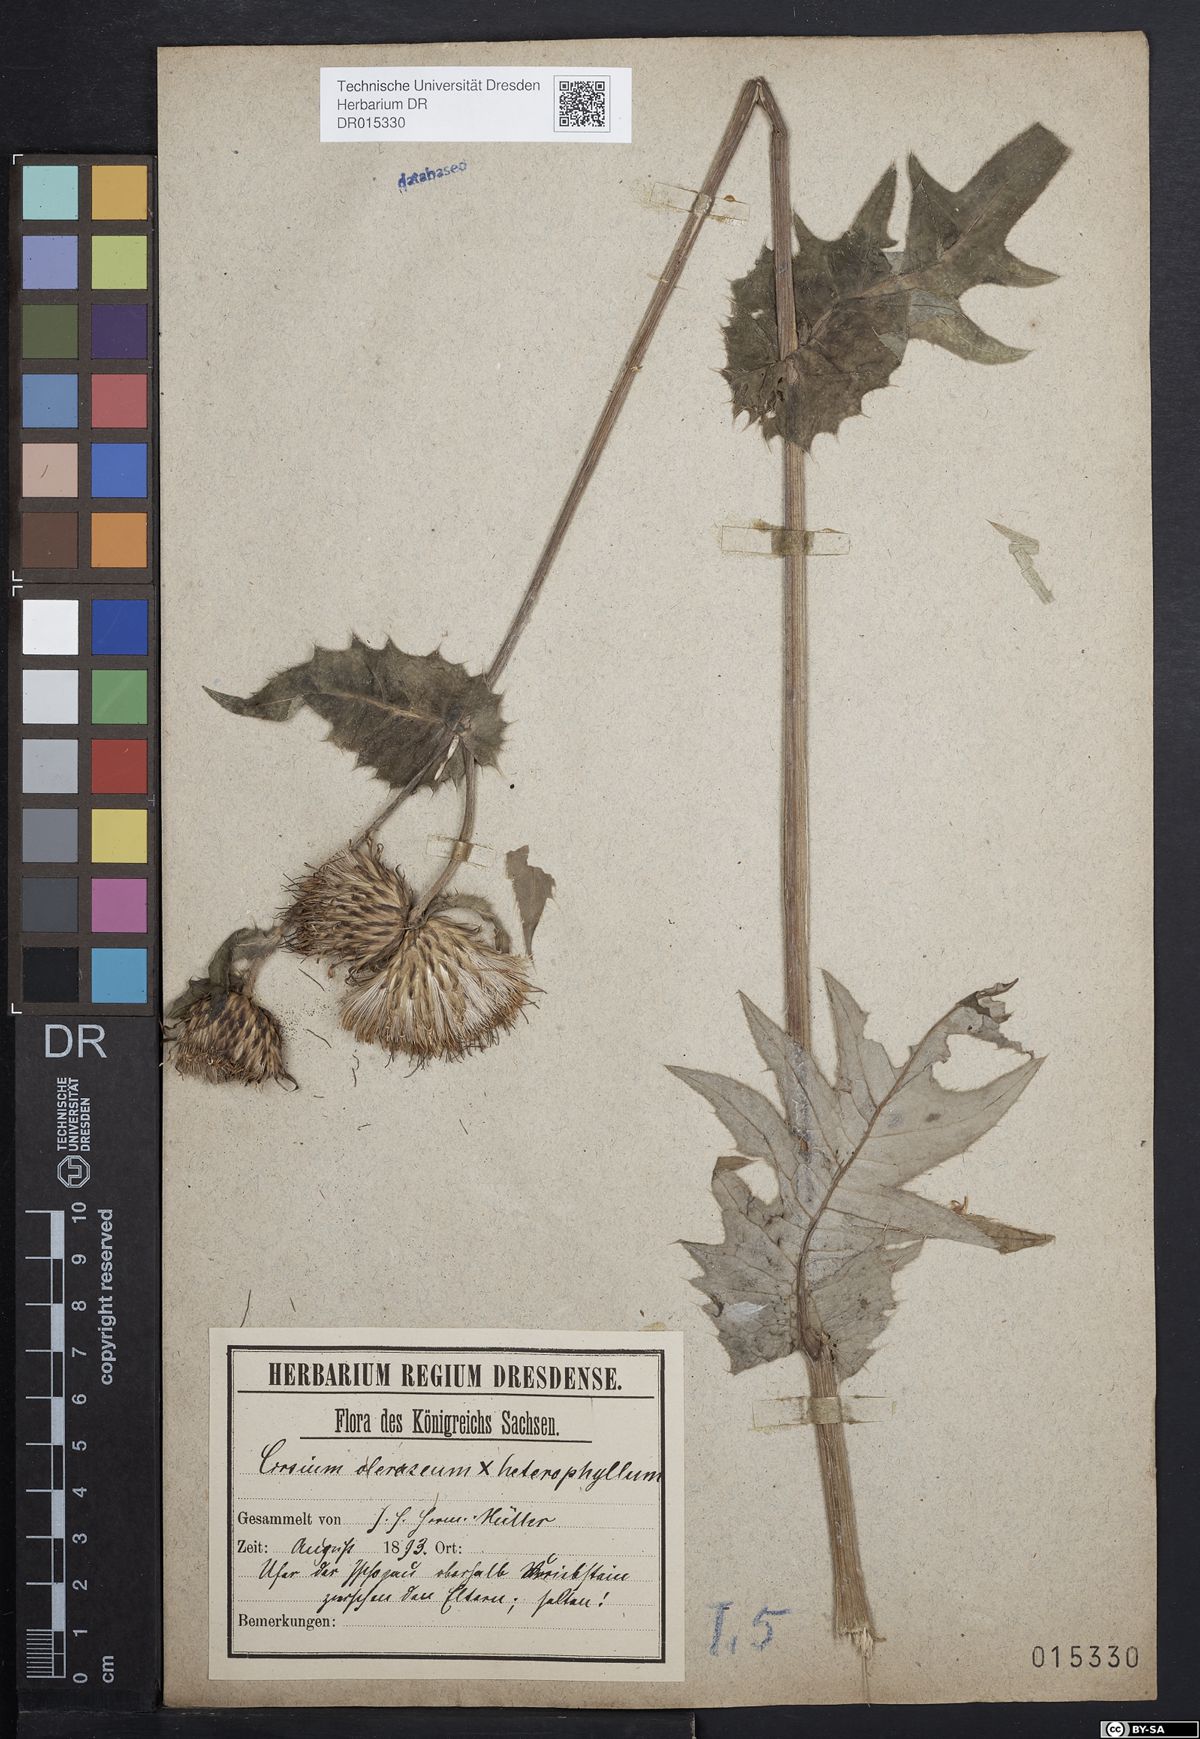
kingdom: Plantae
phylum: Tracheophyta
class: Magnoliopsida
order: Asterales
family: Asteraceae
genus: Cirsium
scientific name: Cirsium affine
